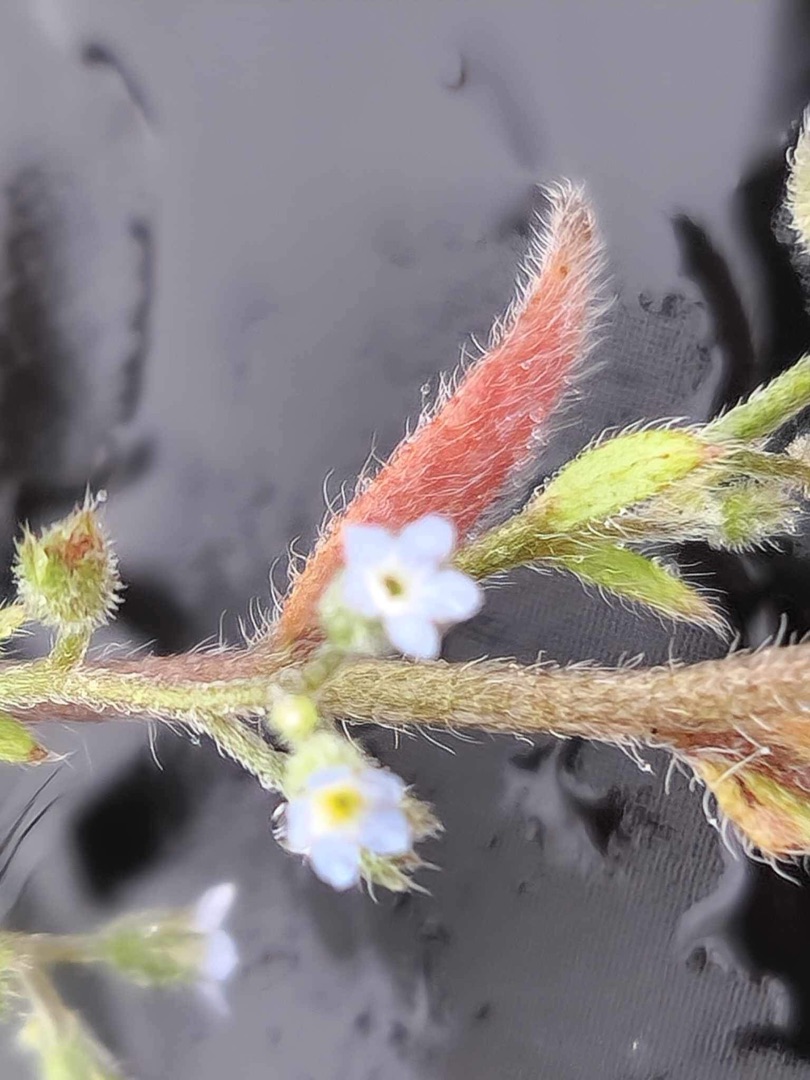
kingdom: Plantae
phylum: Tracheophyta
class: Magnoliopsida
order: Boraginales
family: Boraginaceae
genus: Myosotis
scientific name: Myosotis ramosissima
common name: Bakke-forglemmigej
